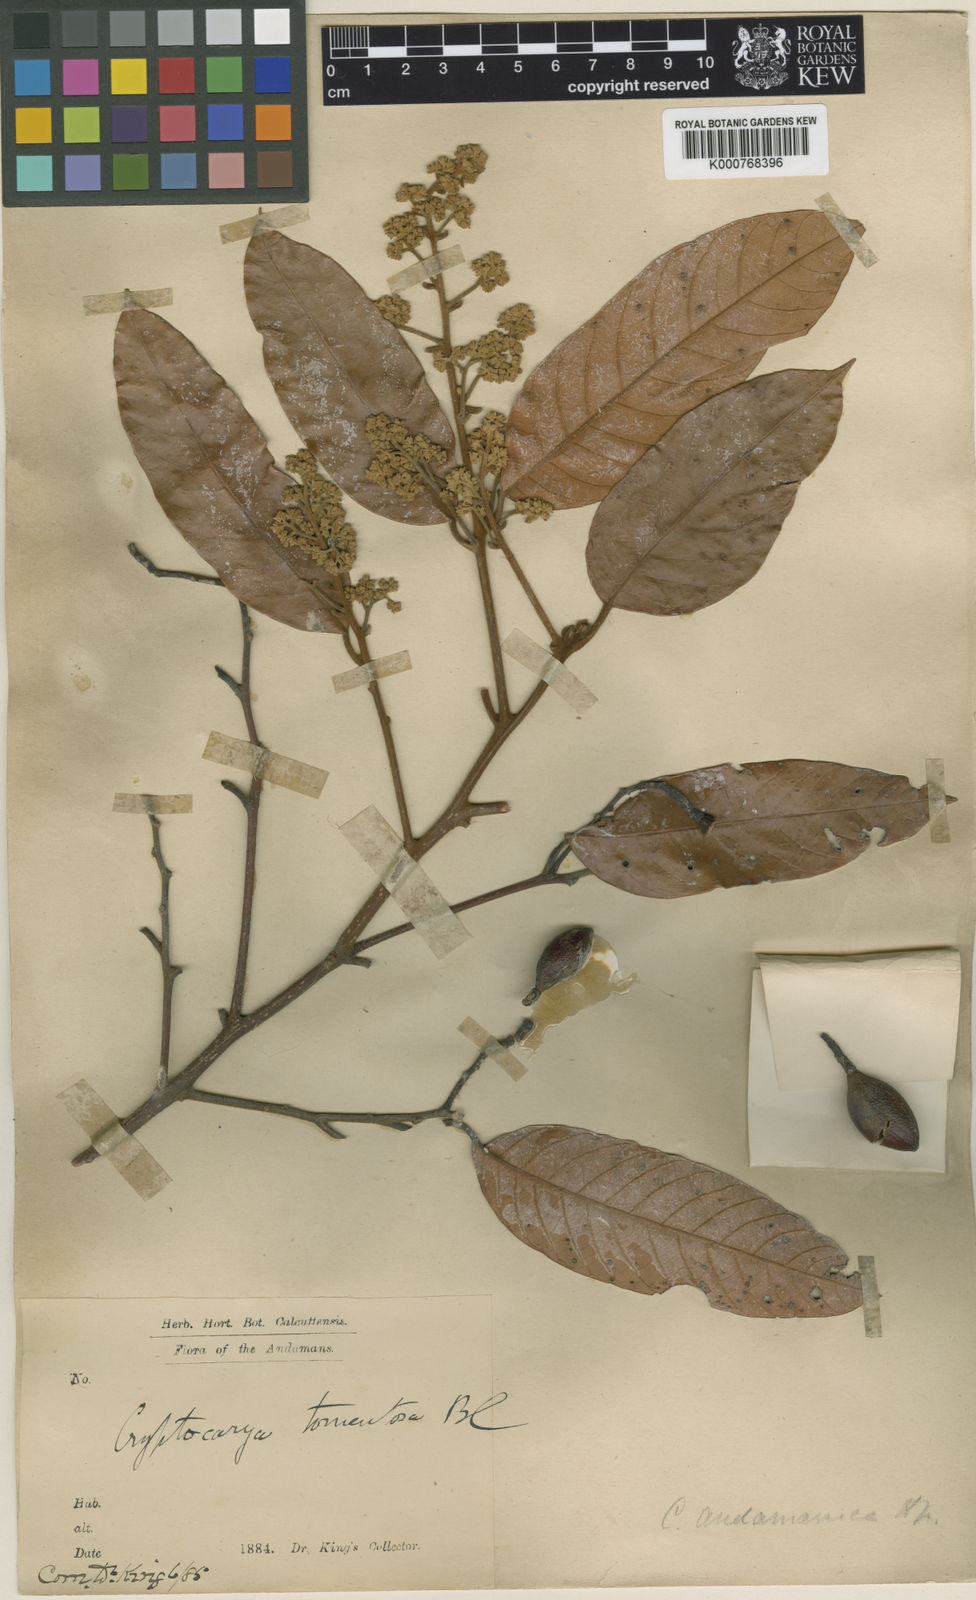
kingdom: Plantae
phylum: Tracheophyta
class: Magnoliopsida
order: Laurales
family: Lauraceae
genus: Cryptocarya
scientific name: Cryptocarya andamanica
